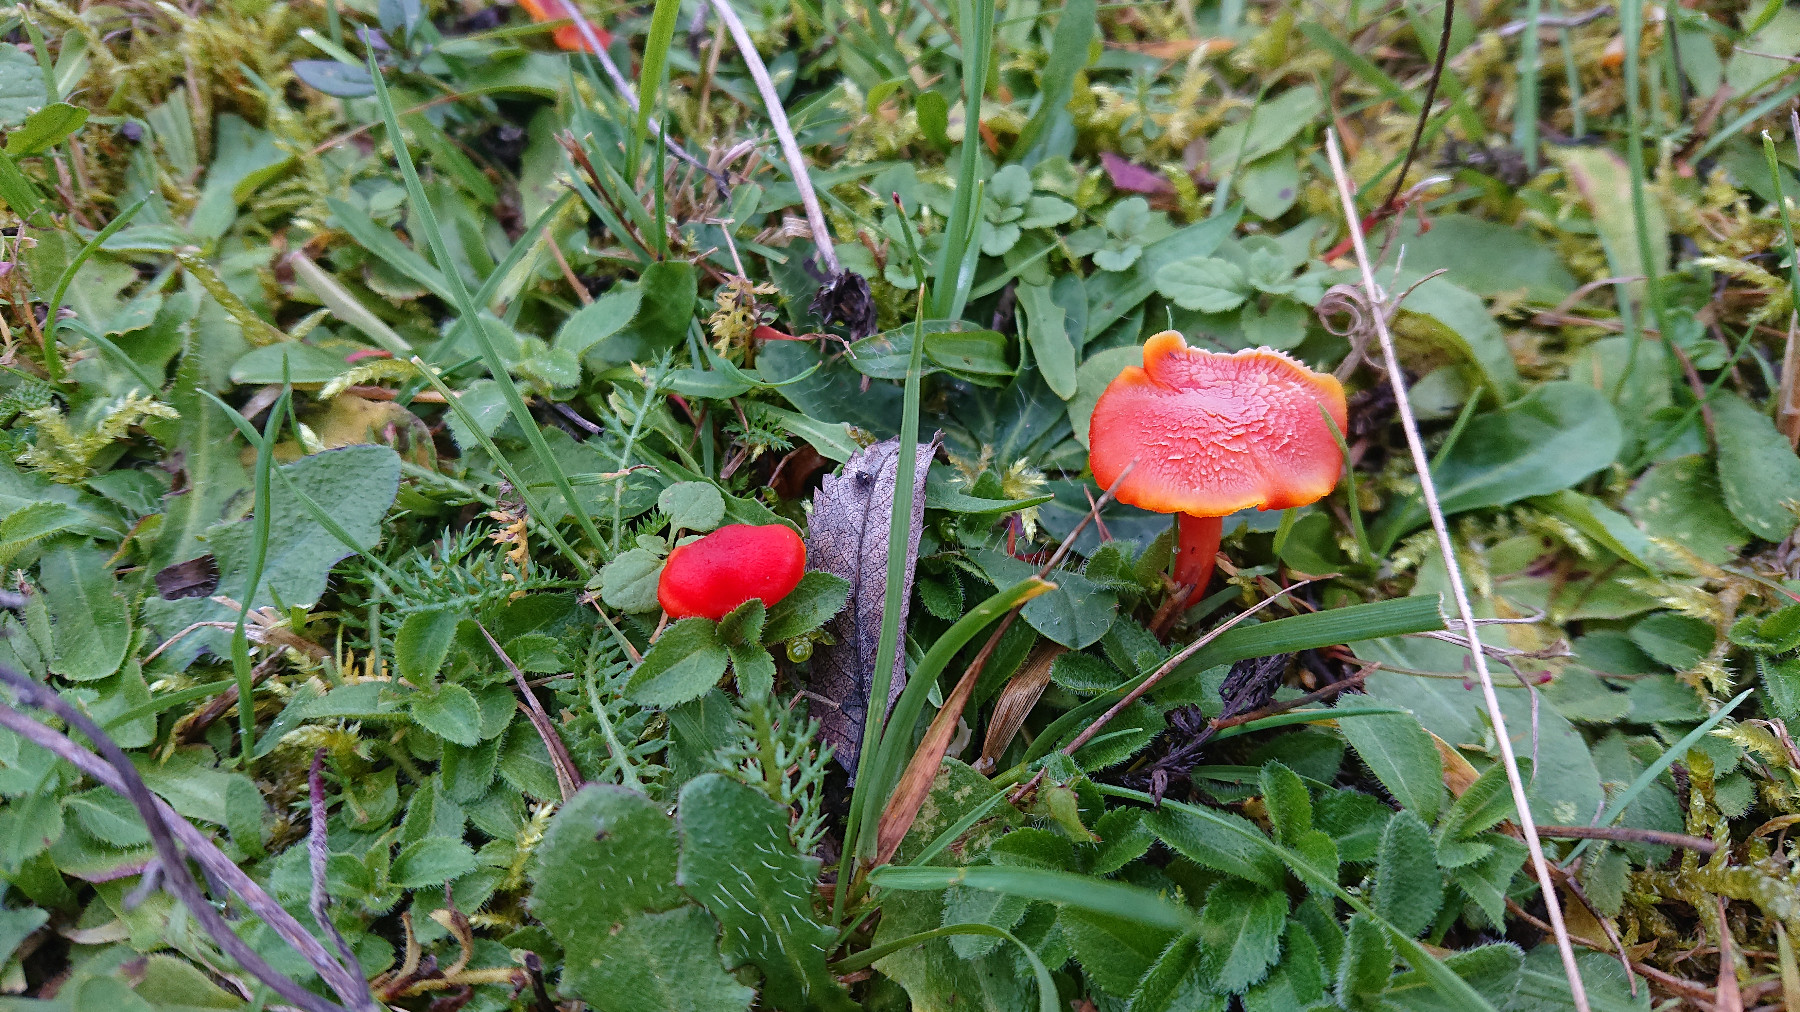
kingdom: Fungi
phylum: Basidiomycota
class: Agaricomycetes
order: Agaricales
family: Hygrophoraceae
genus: Hygrocybe
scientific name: Hygrocybe miniata
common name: mønje-vokshat
